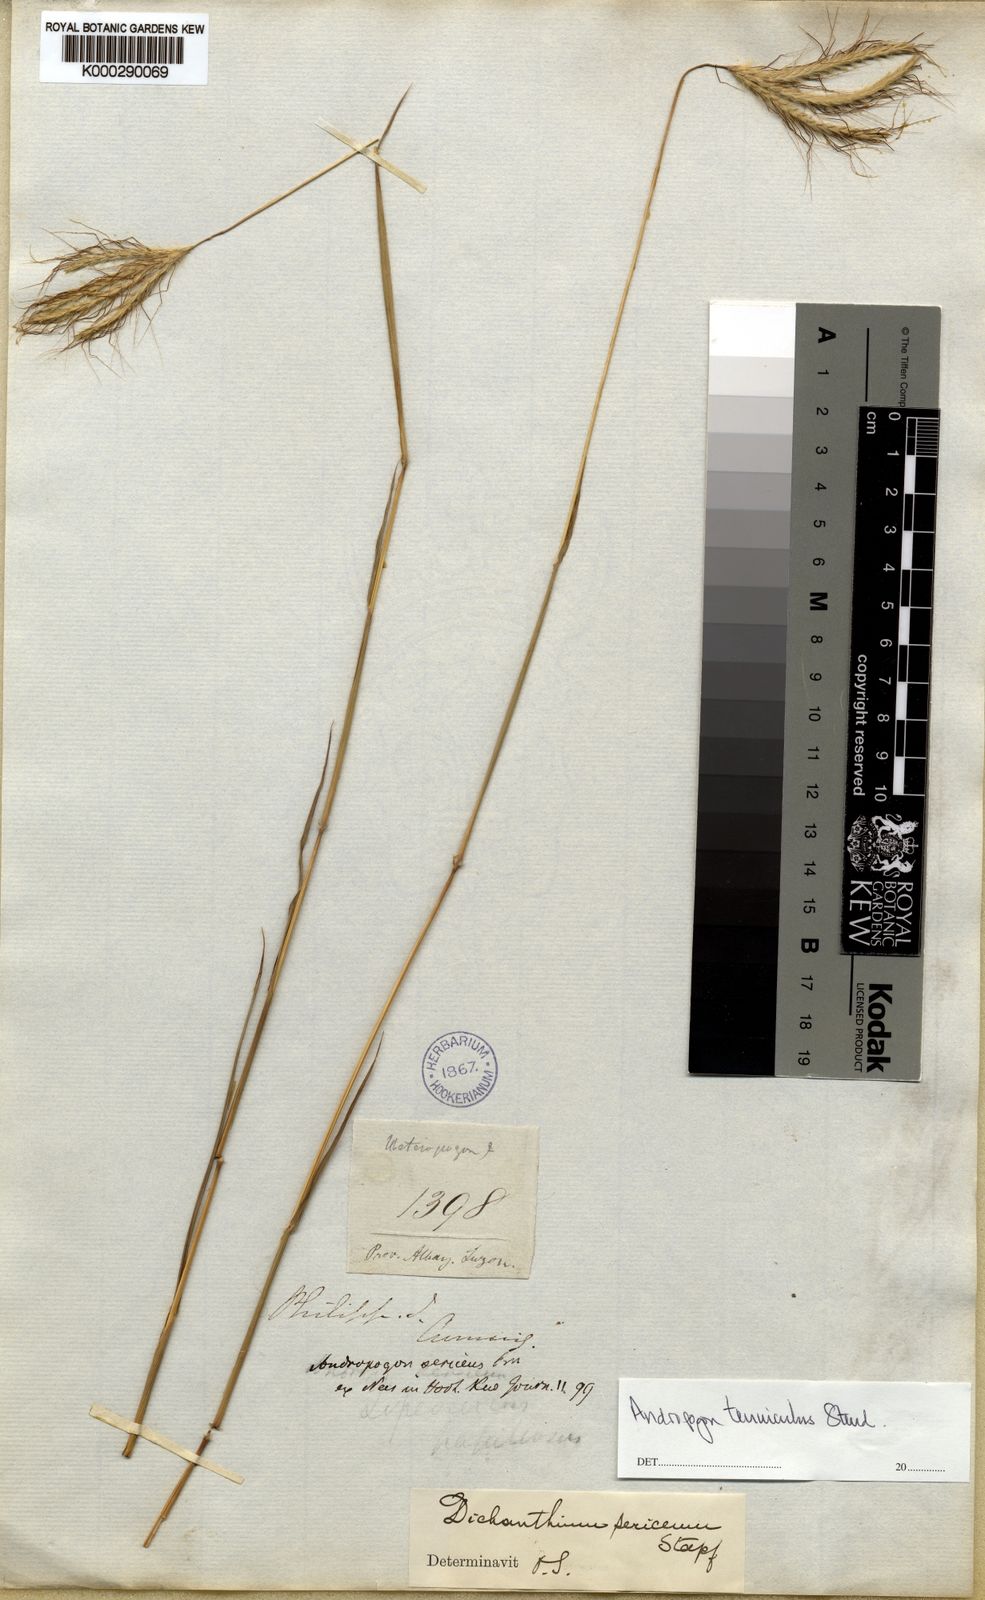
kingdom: Plantae
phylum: Tracheophyta
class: Liliopsida
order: Poales
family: Poaceae
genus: Dichanthium
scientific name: Dichanthium sericeum
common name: Silky bluestem
